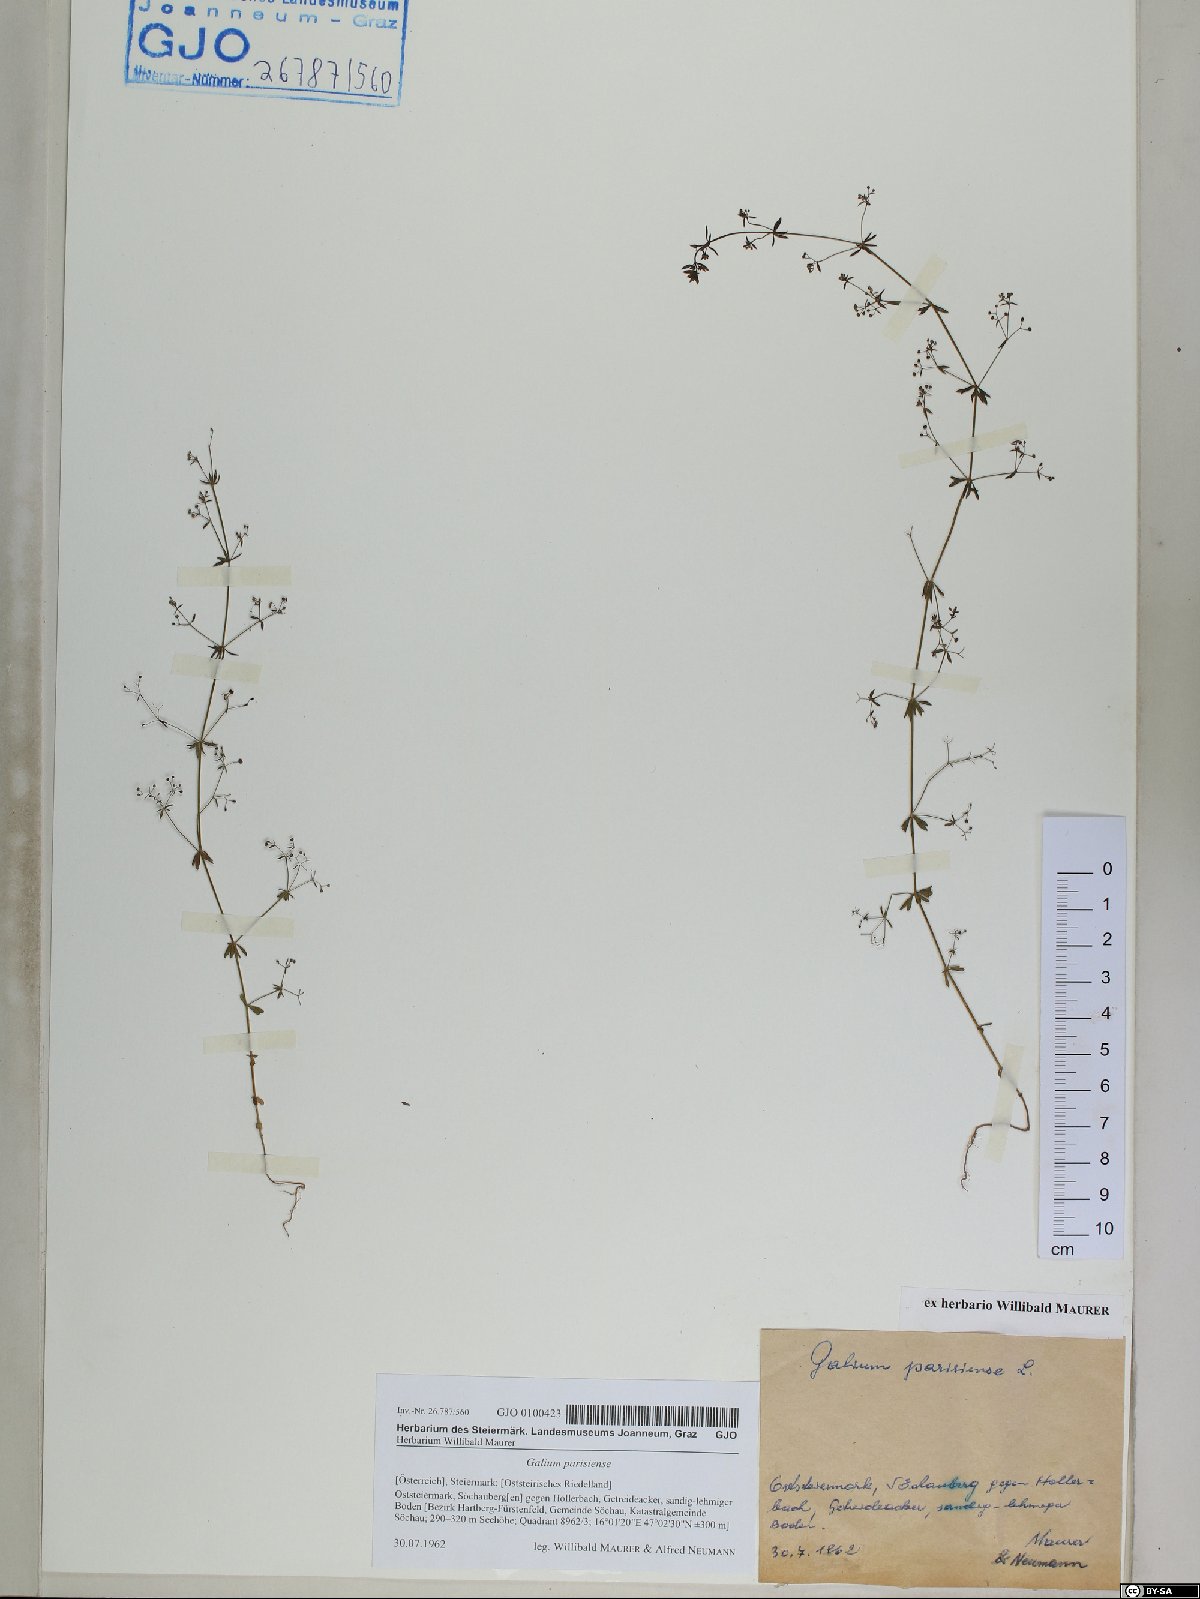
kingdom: Plantae
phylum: Tracheophyta
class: Magnoliopsida
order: Gentianales
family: Rubiaceae
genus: Galium
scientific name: Galium parisiense
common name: Wall bedstraw
